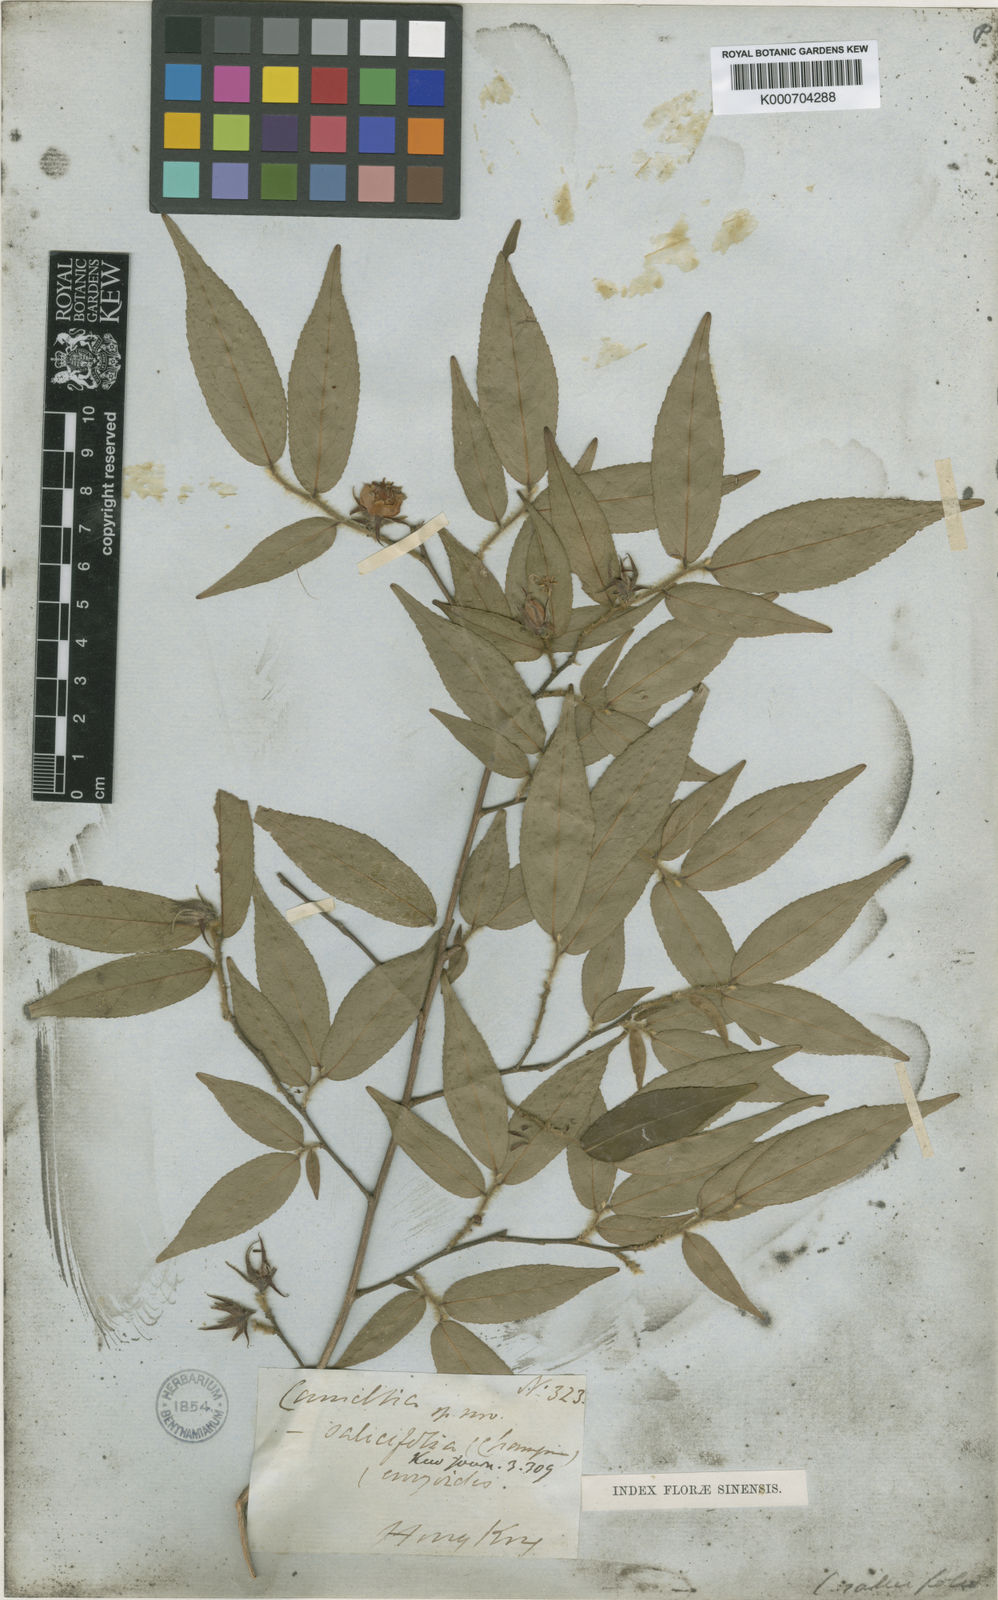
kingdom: Plantae
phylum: Tracheophyta
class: Magnoliopsida
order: Ericales
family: Theaceae
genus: Camellia
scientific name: Camellia salicifolia
